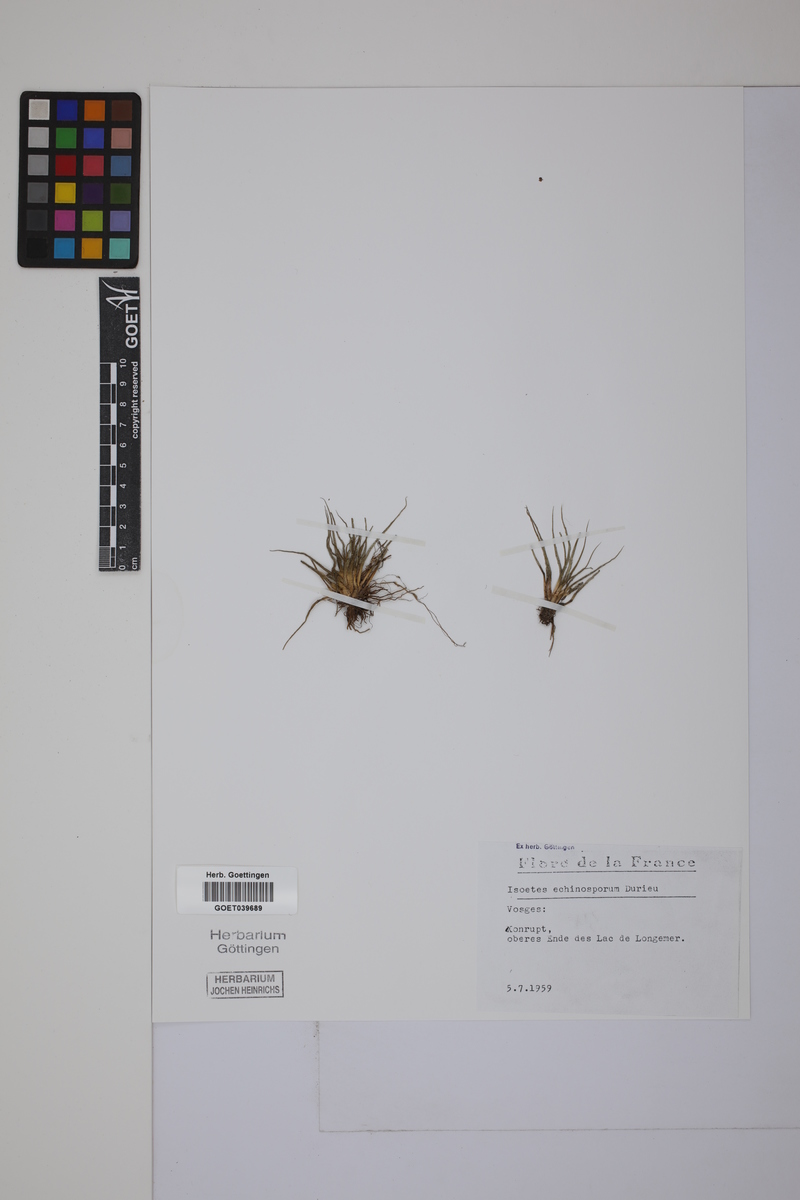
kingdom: Plantae
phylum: Tracheophyta
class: Lycopodiopsida
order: Isoetales
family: Isoetaceae
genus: Isoetes
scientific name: Isoetes echinospora
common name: Spring quillwort
